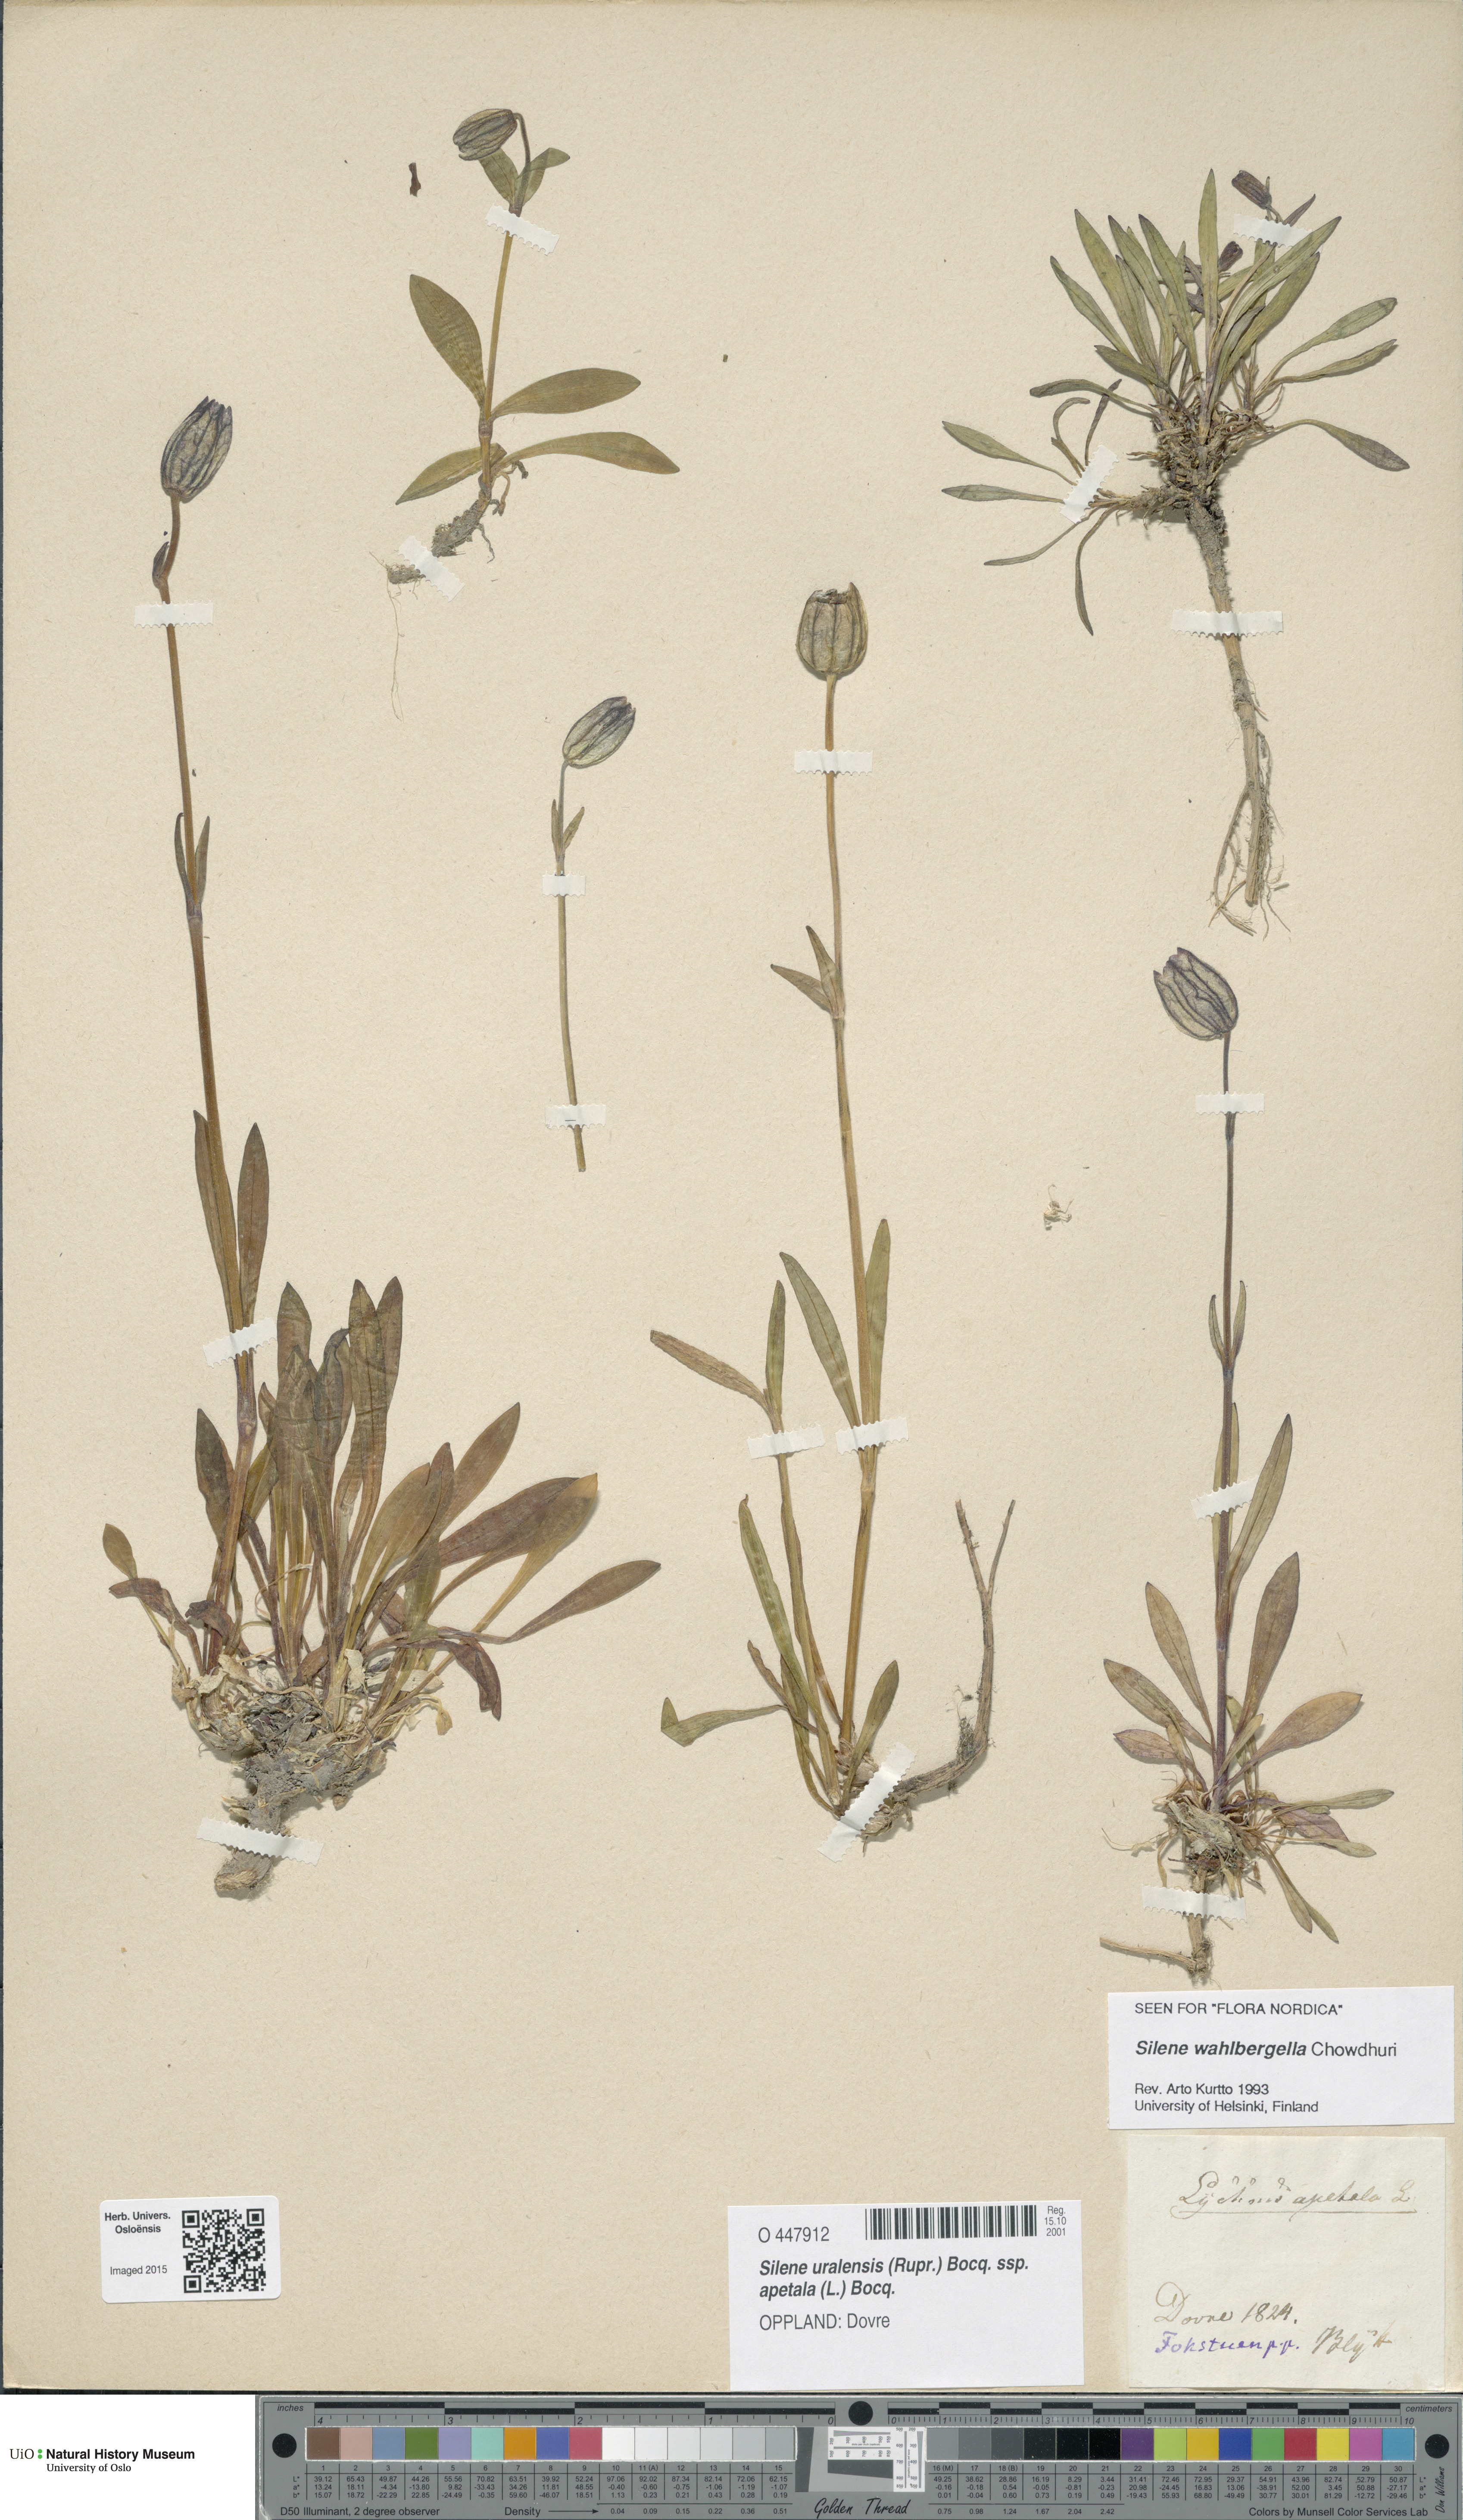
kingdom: Plantae
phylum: Tracheophyta
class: Magnoliopsida
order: Caryophyllales
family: Caryophyllaceae
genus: Silene
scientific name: Silene wahlbergella
